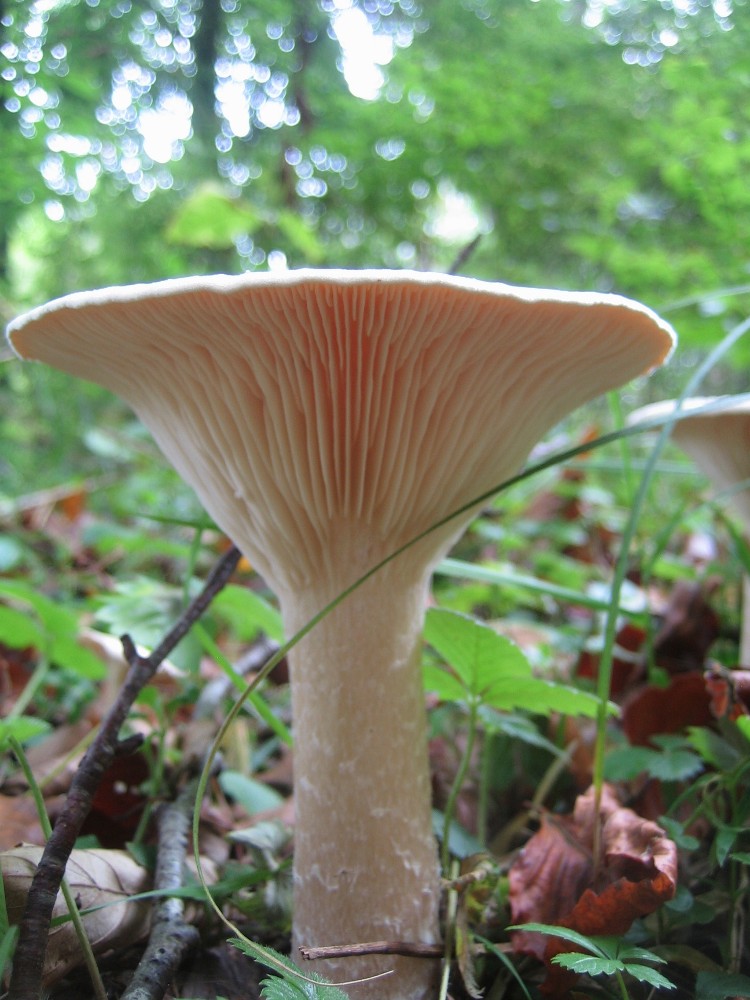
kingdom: Fungi
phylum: Basidiomycota
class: Agaricomycetes
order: Agaricales
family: Tricholomataceae
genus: Infundibulicybe
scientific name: Infundibulicybe geotropa
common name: stor tragthat
